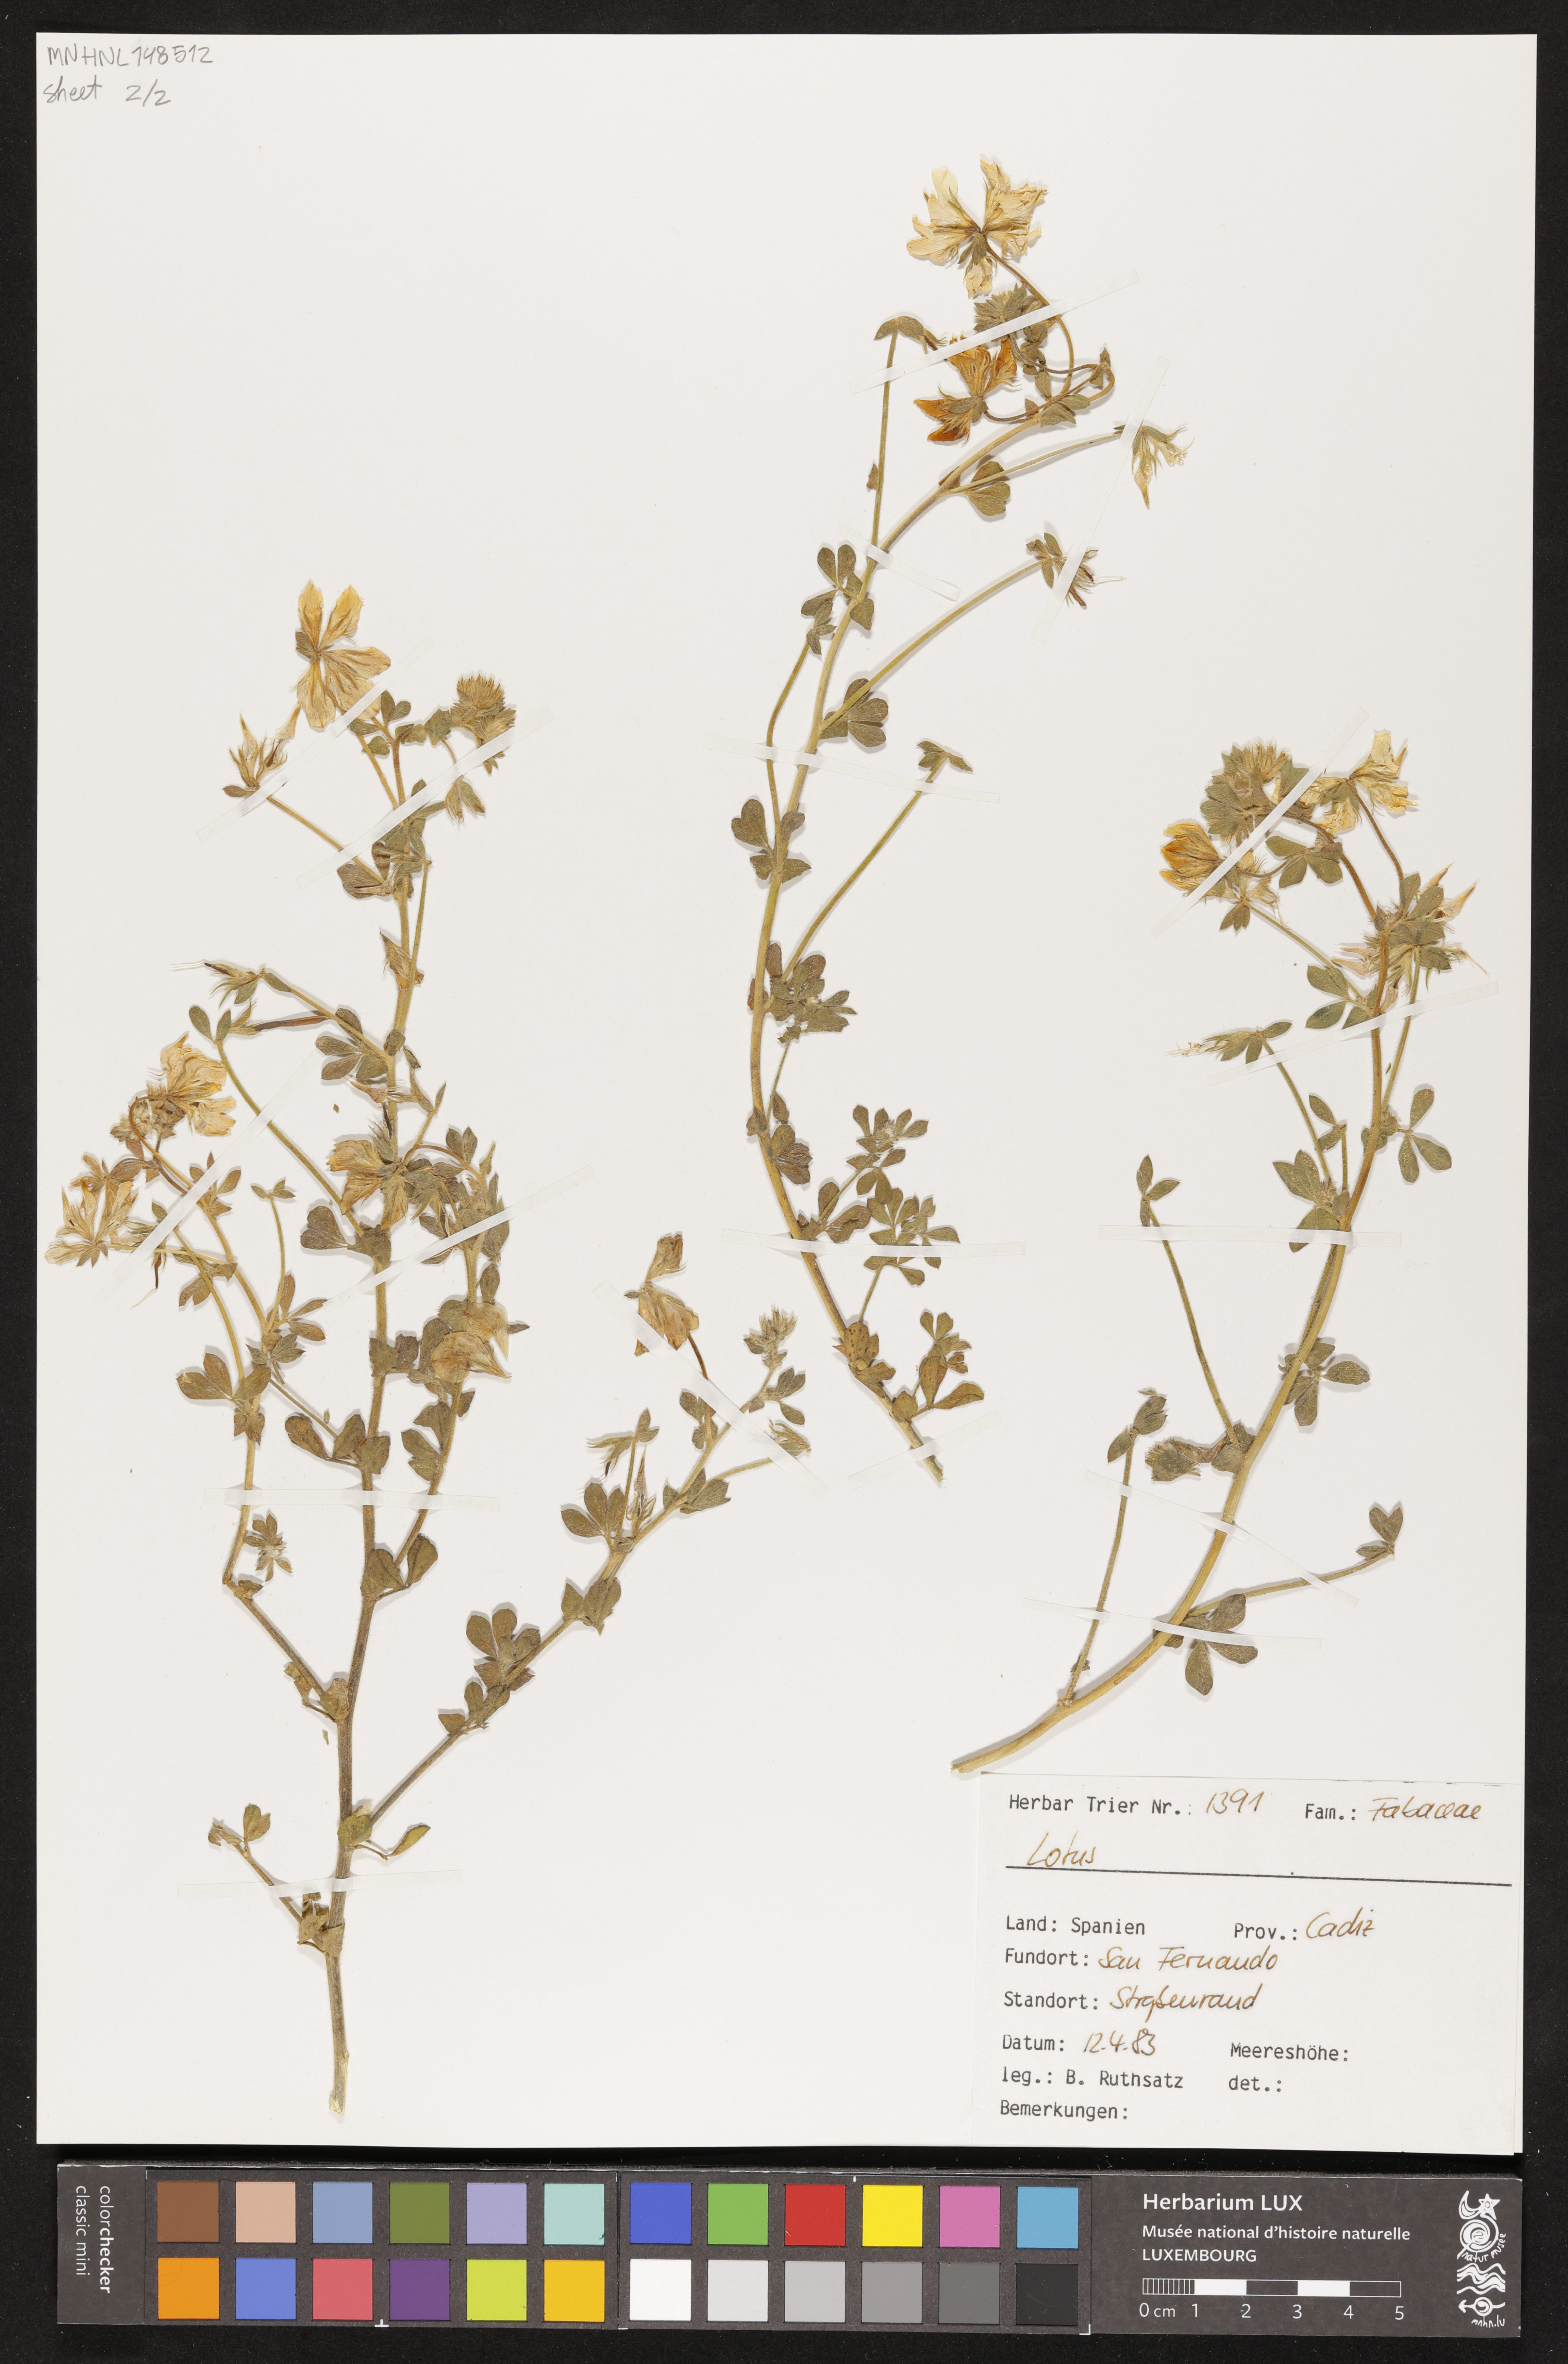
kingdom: Plantae
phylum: Tracheophyta
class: Magnoliopsida
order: Fabales
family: Fabaceae
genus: Lotus
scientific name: Lotus
